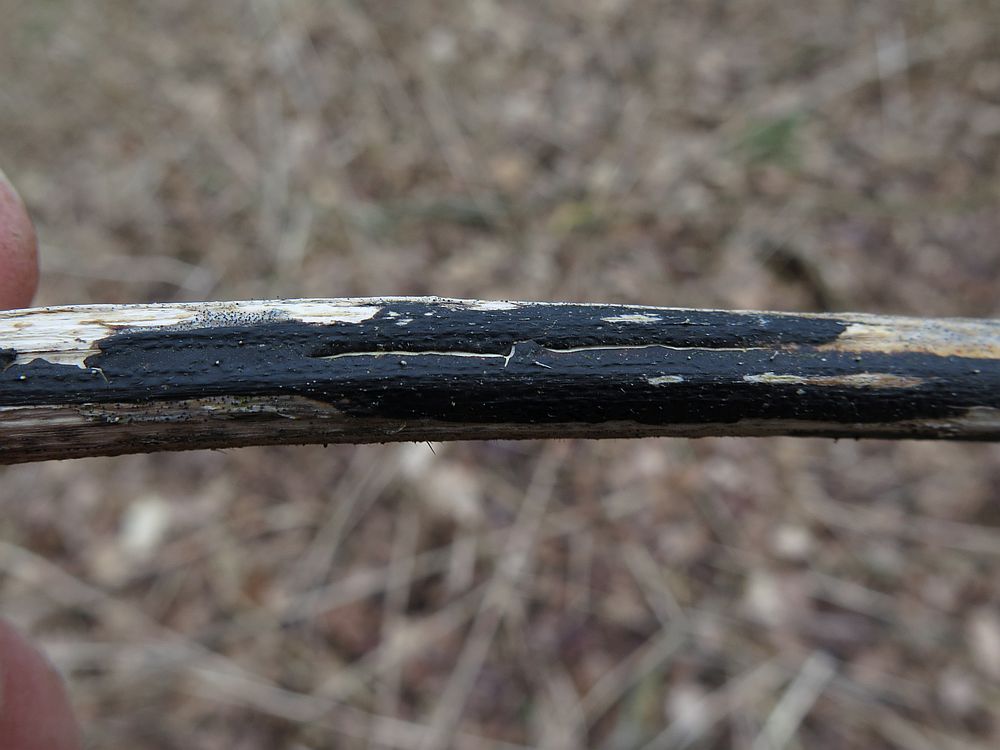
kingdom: Fungi
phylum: Ascomycota
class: Sordariomycetes
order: Diaporthales
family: Diaporthaceae
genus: Diaporthopsis
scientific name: Diaporthopsis urticae
